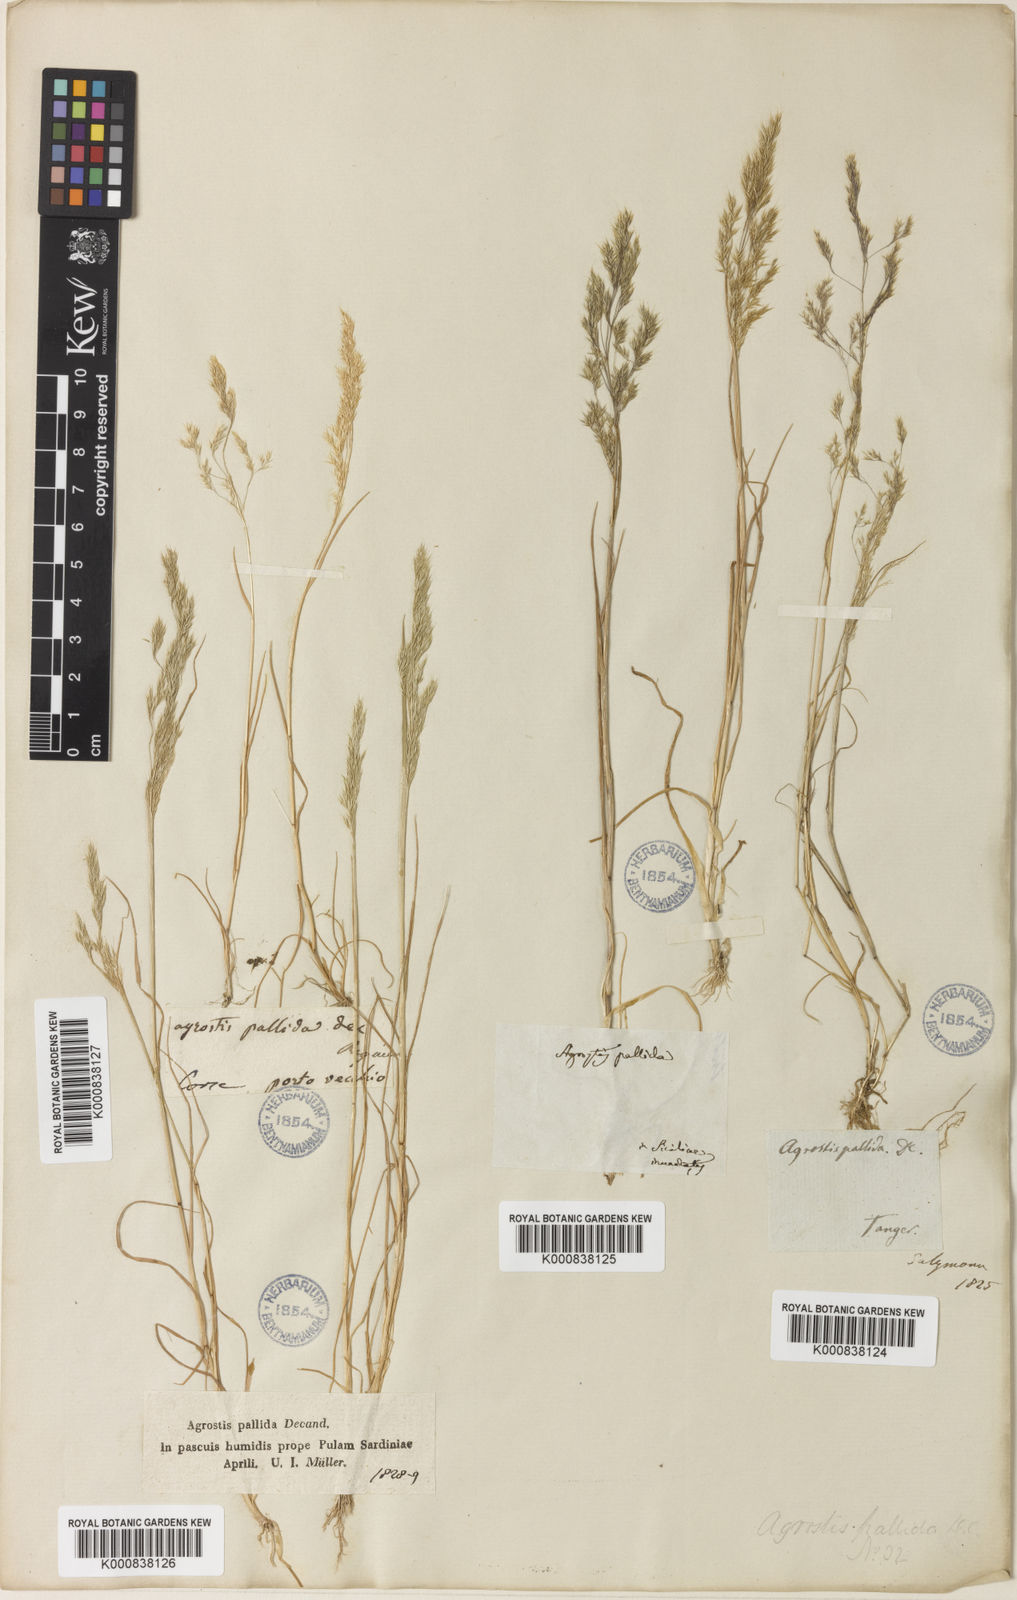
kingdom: Plantae
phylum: Tracheophyta
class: Liliopsida
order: Poales
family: Poaceae
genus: Agrostis
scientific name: Agrostis pourretii
